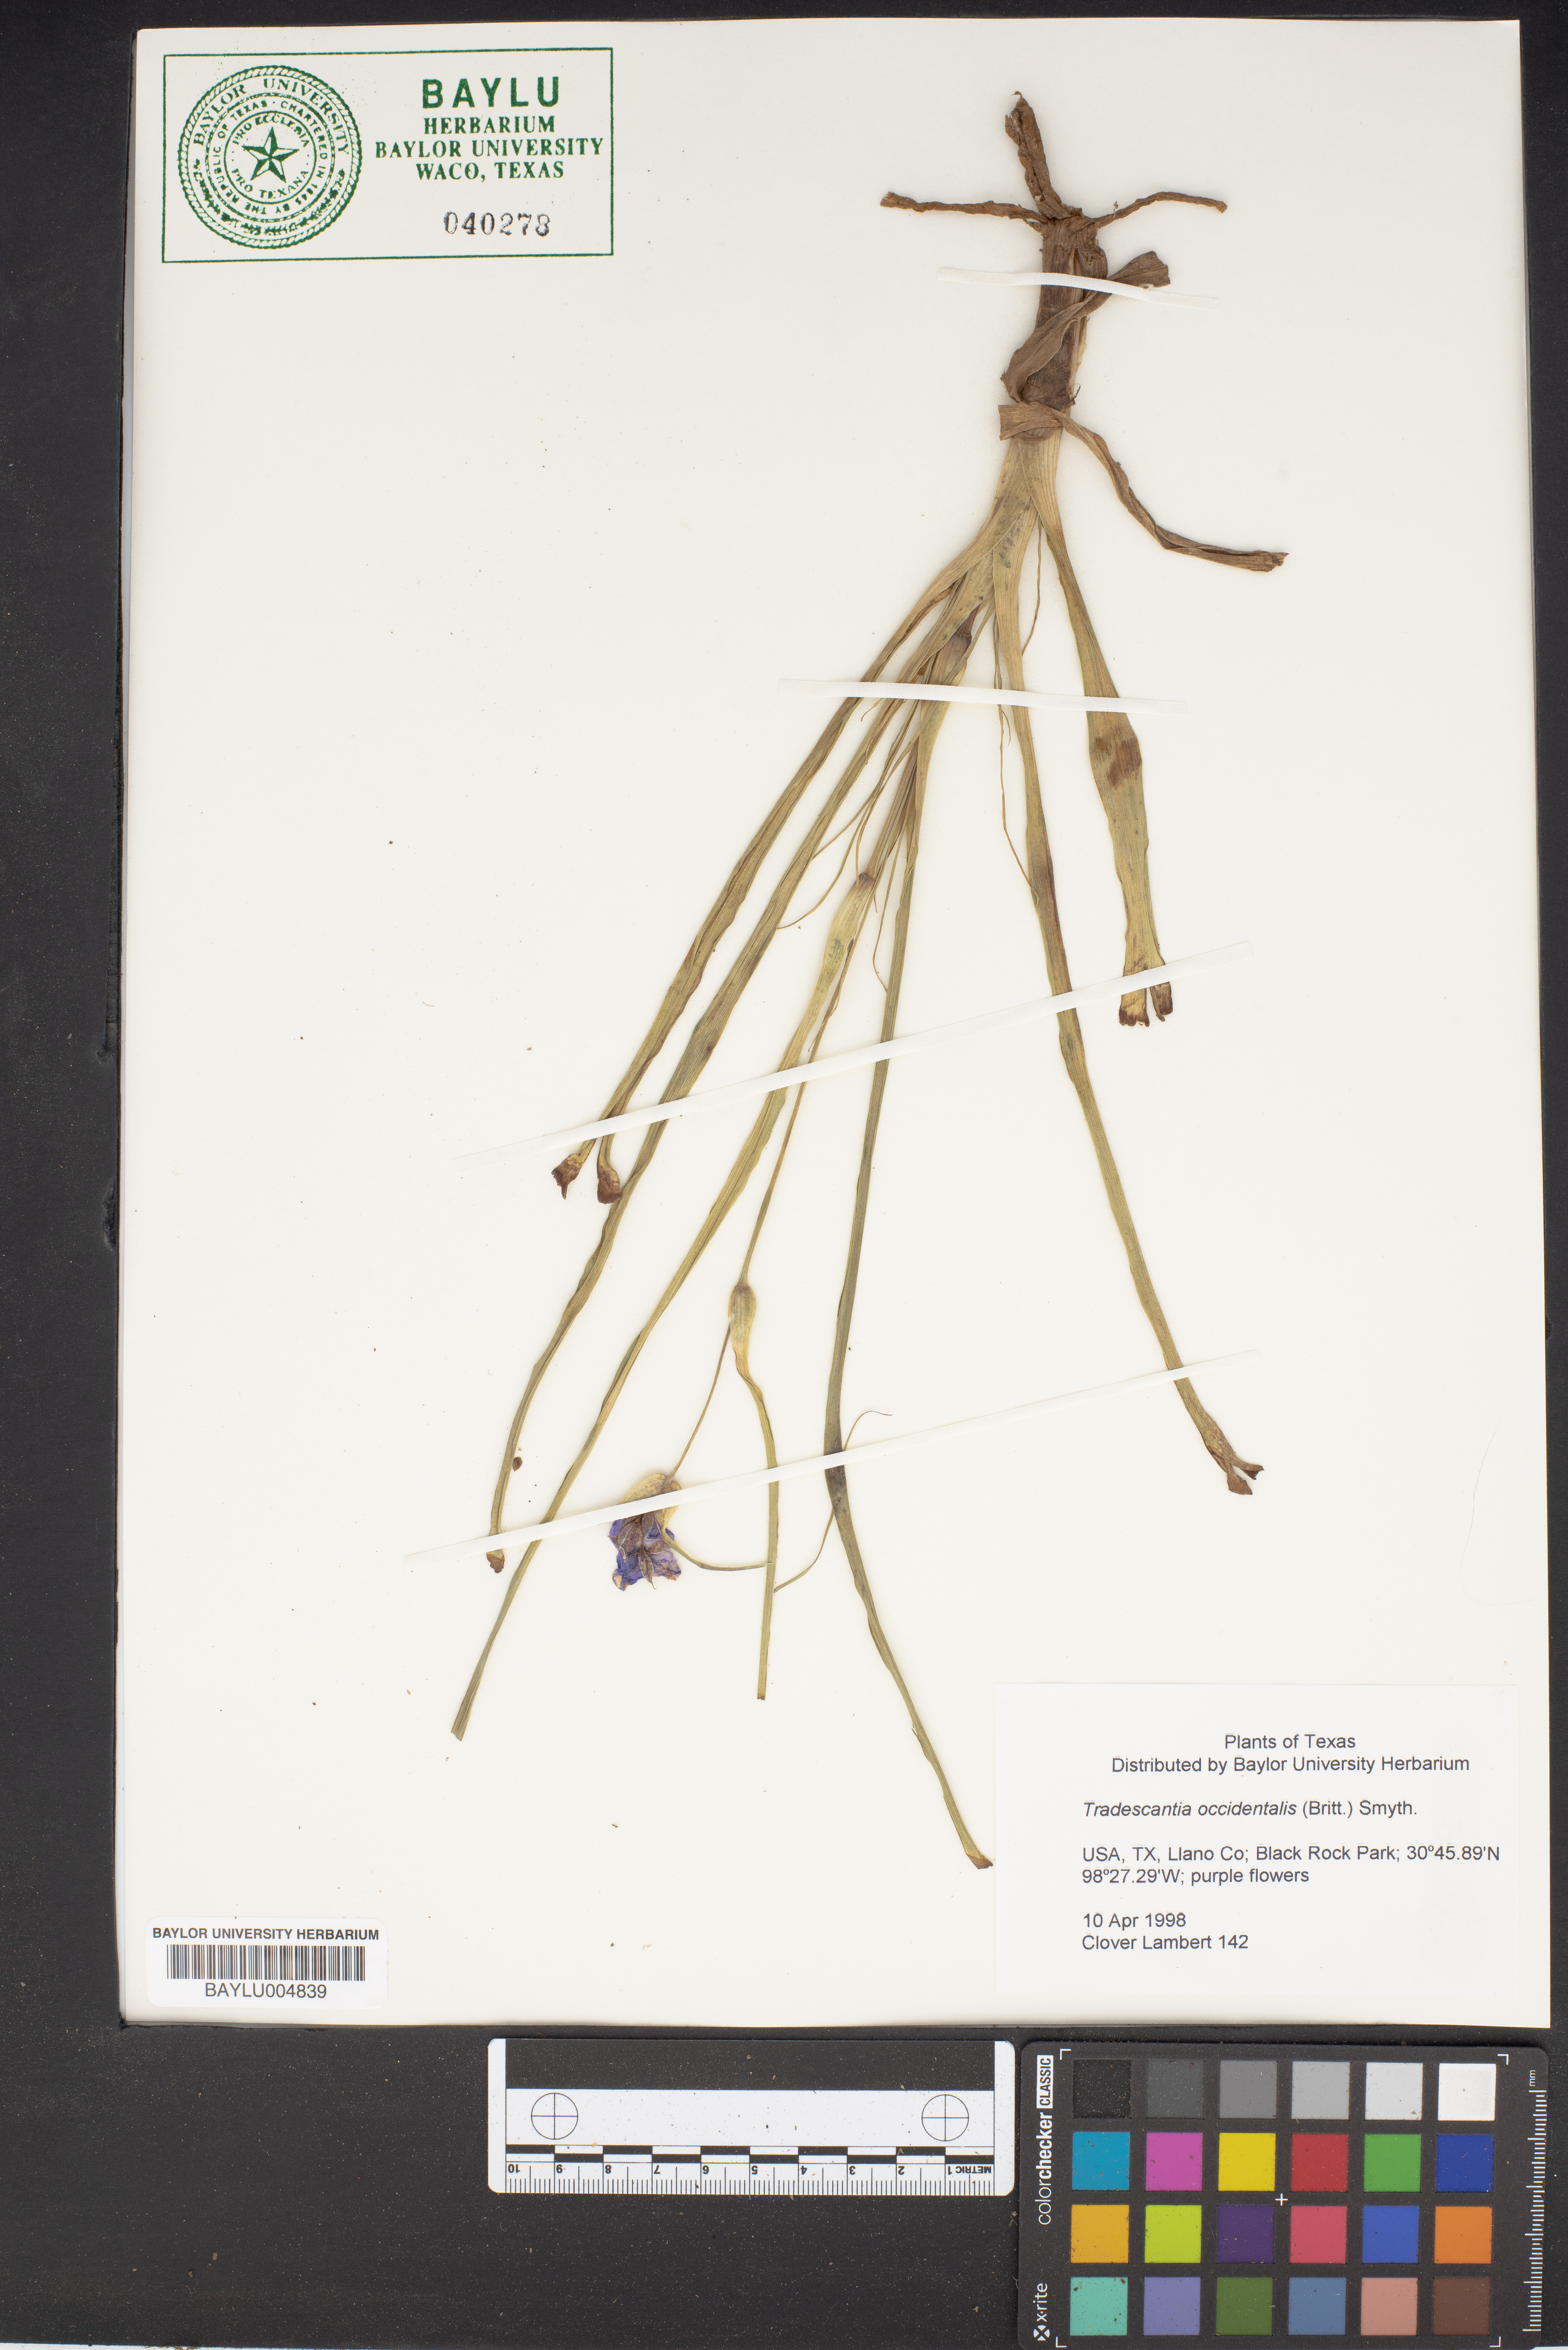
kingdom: Plantae
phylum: Tracheophyta
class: Liliopsida
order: Commelinales
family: Commelinaceae
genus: Tradescantia
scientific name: Tradescantia occidentalis
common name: Prairie spiderwort
